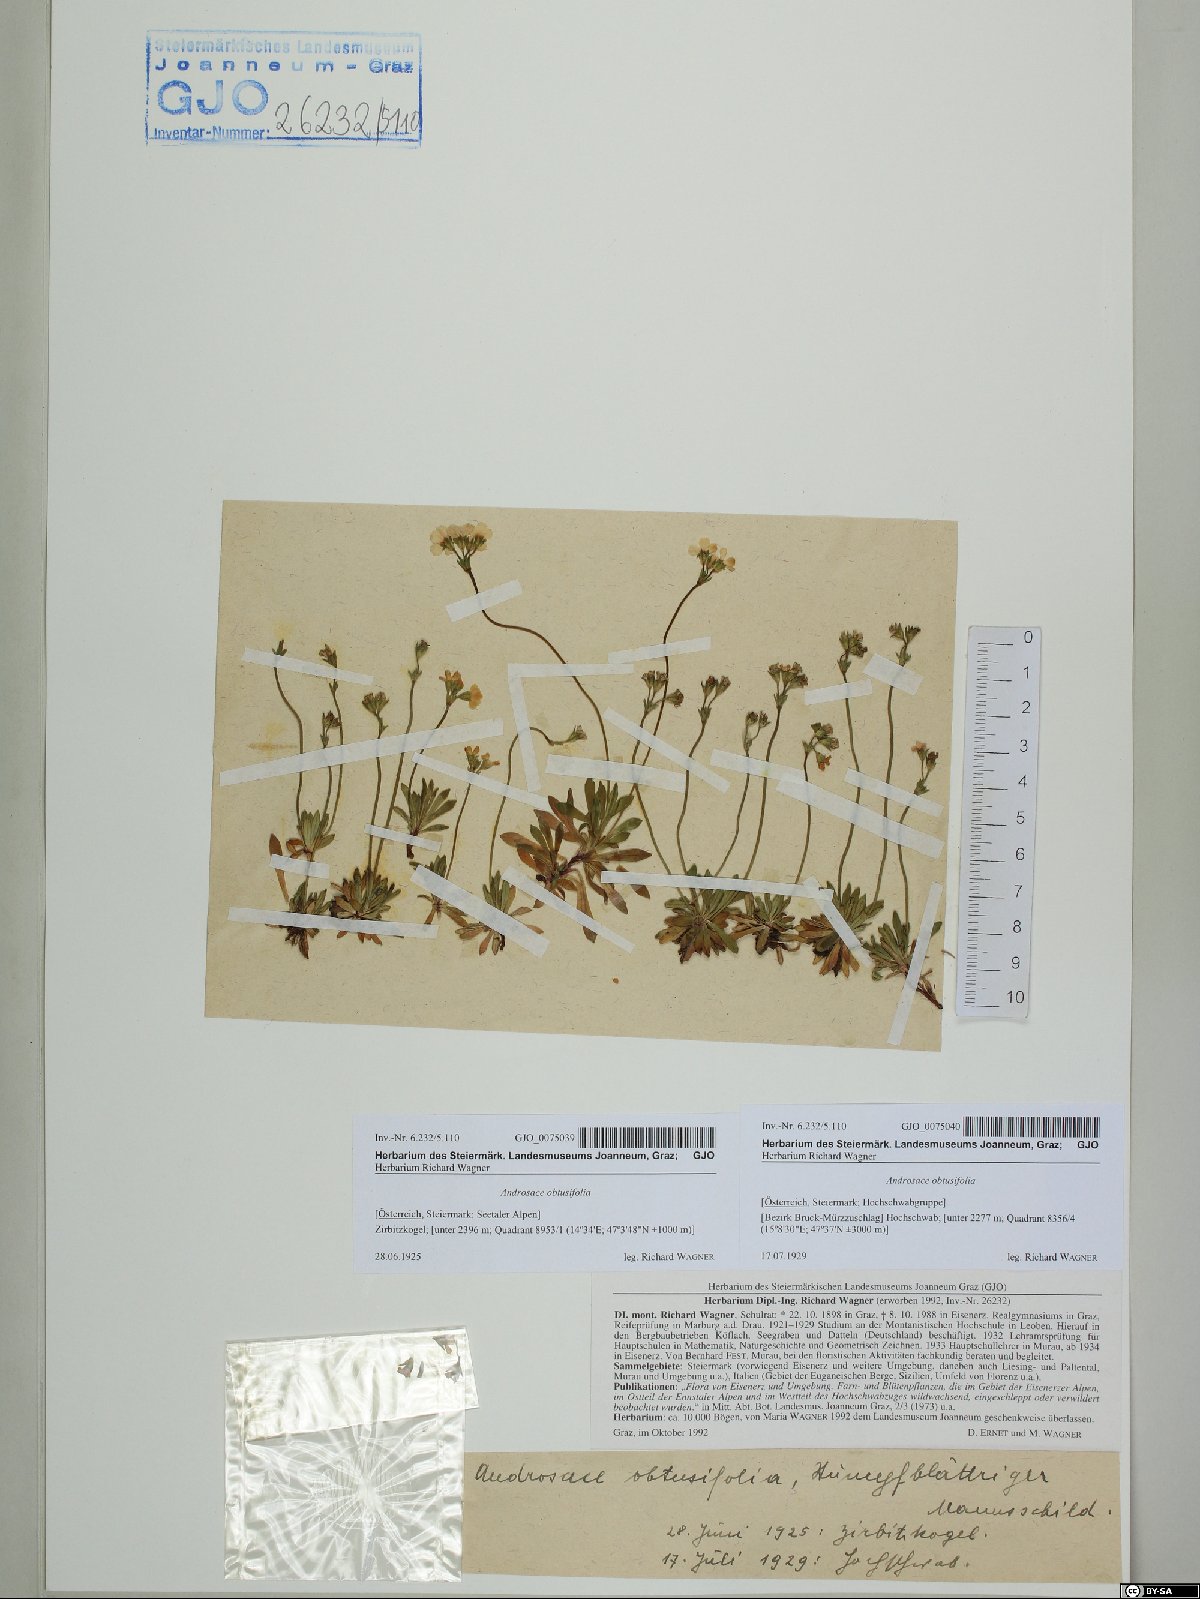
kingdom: Plantae
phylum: Tracheophyta
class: Magnoliopsida
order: Ericales
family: Primulaceae
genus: Androsace
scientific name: Androsace obtusifolia
